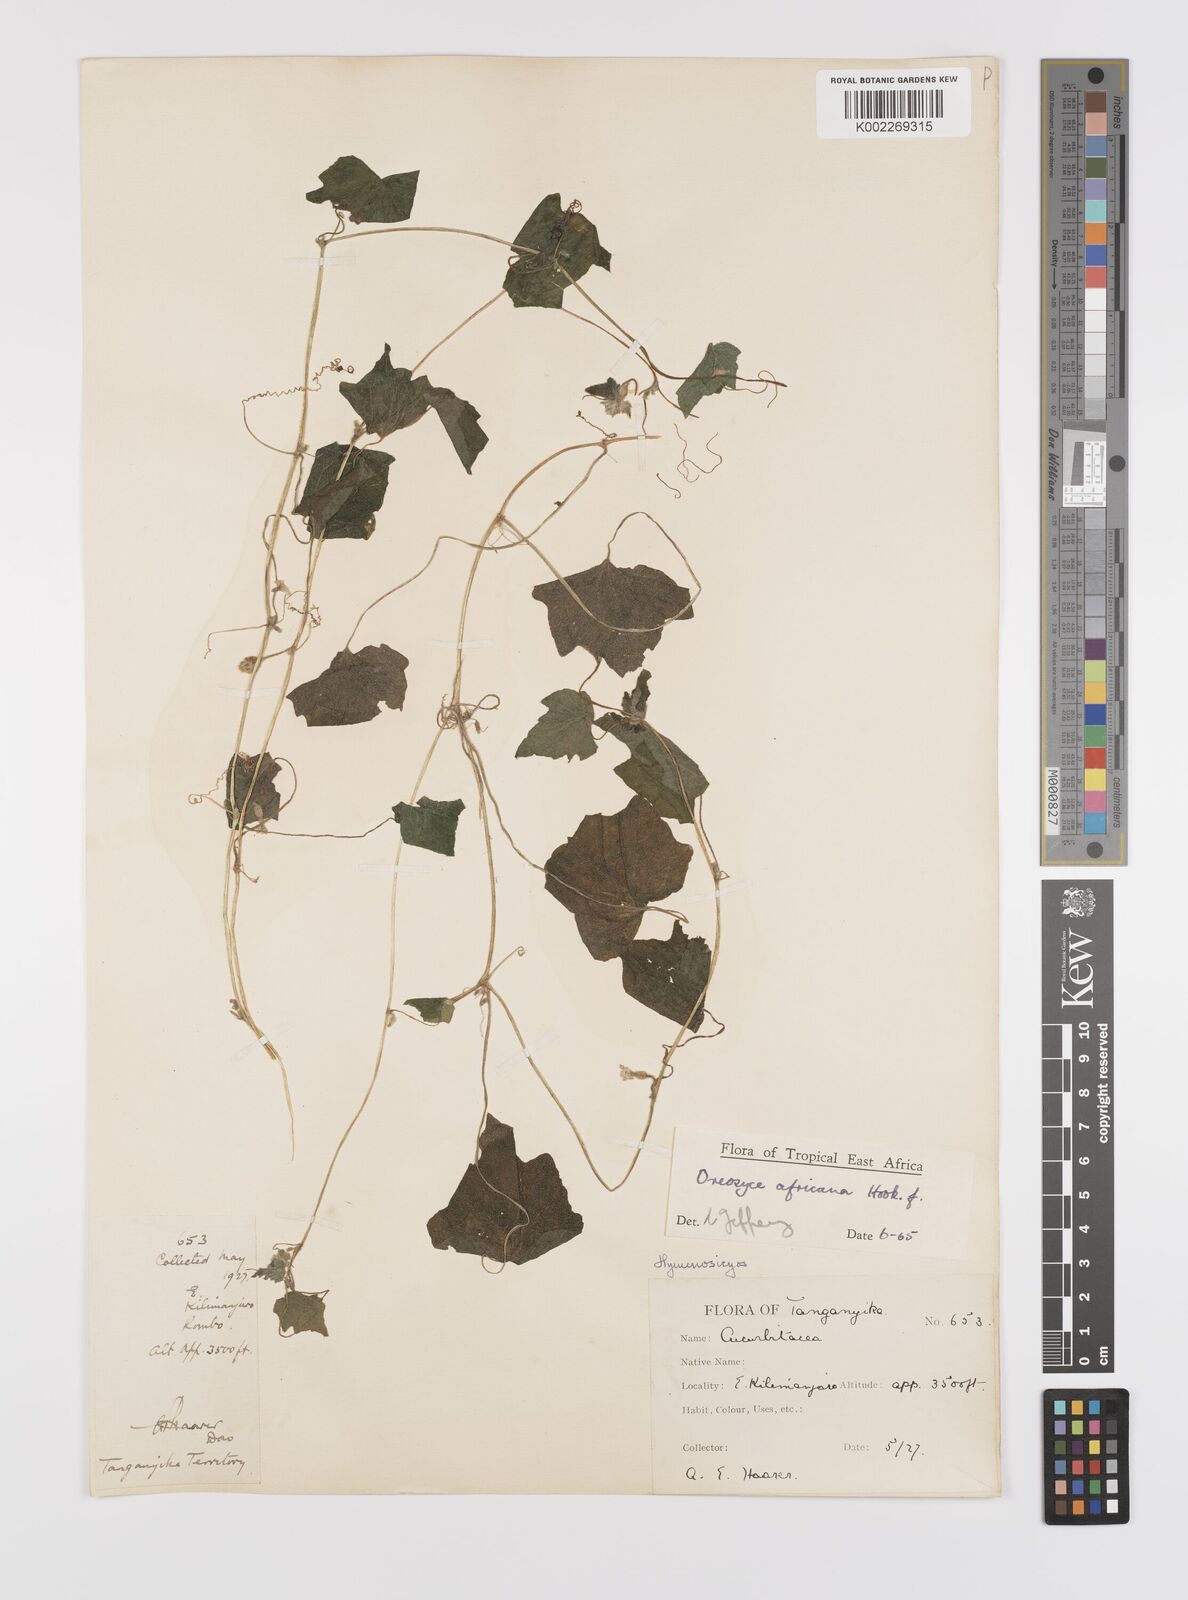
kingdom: Plantae
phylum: Tracheophyta
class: Magnoliopsida
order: Cucurbitales
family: Cucurbitaceae
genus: Cucumis
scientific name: Cucumis oreosyce
